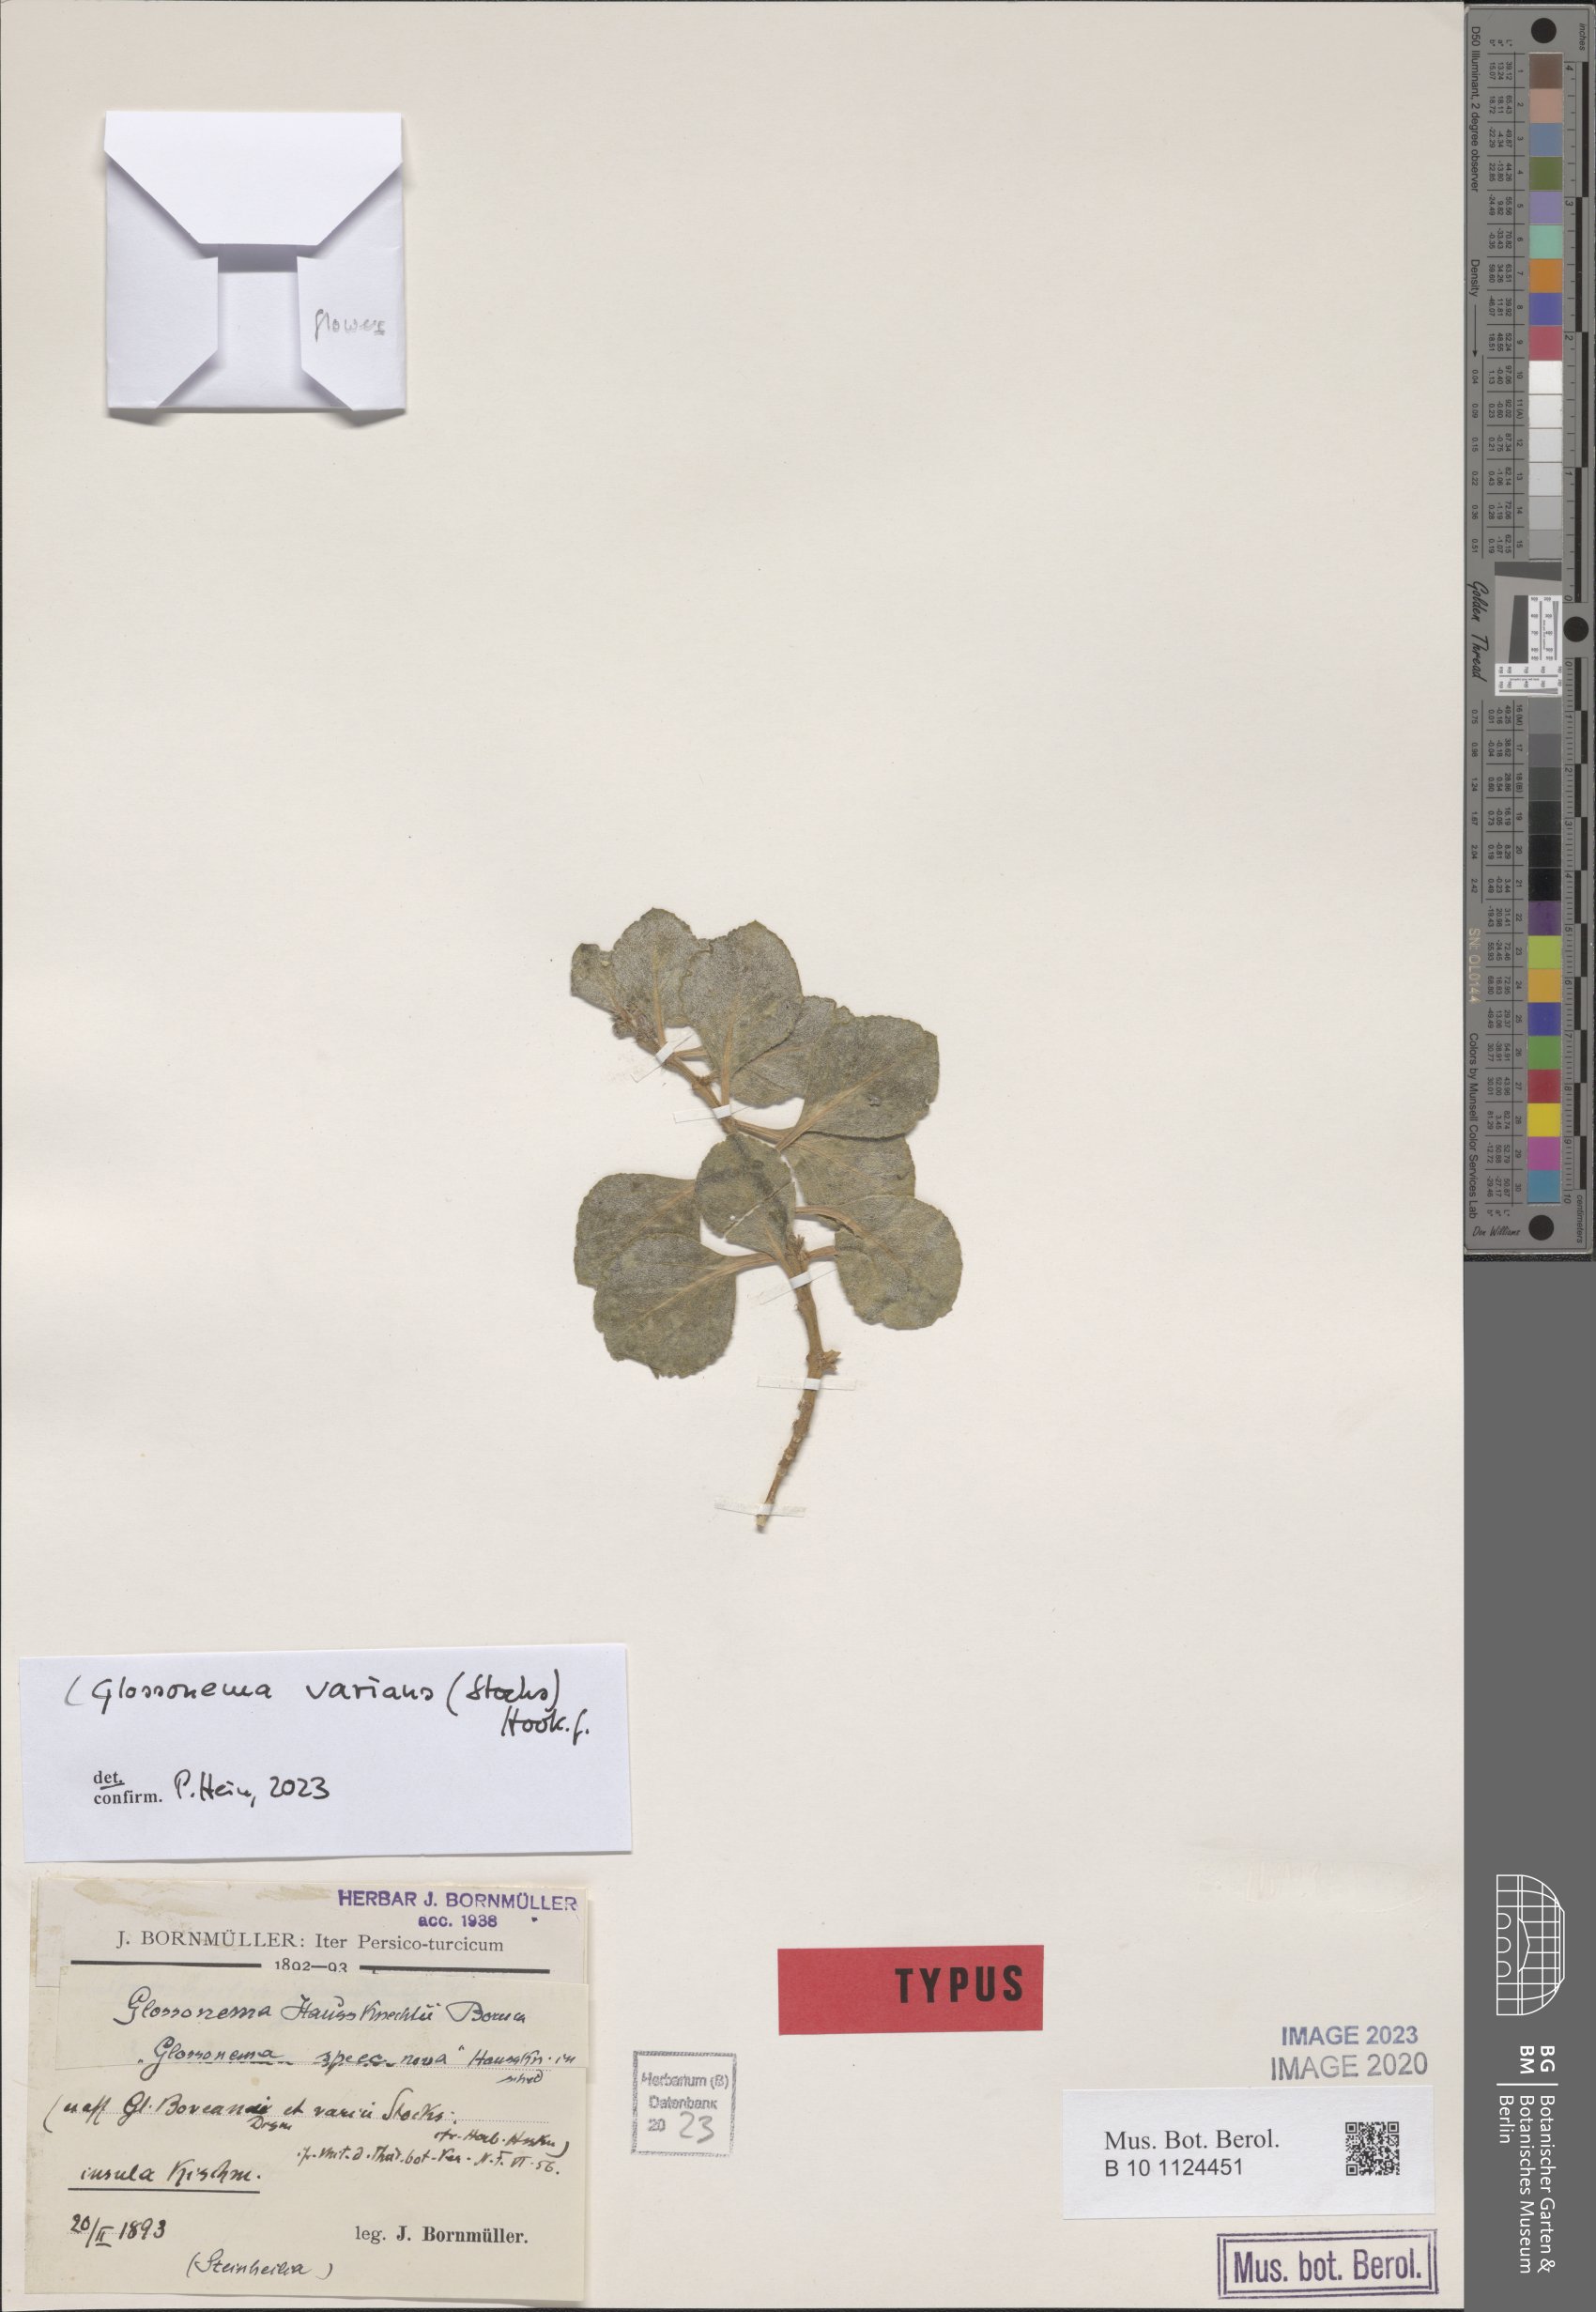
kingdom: Plantae
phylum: Tracheophyta
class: Magnoliopsida
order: Gentianales
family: Apocynaceae
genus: Cynanchum
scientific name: Cynanchum varians
